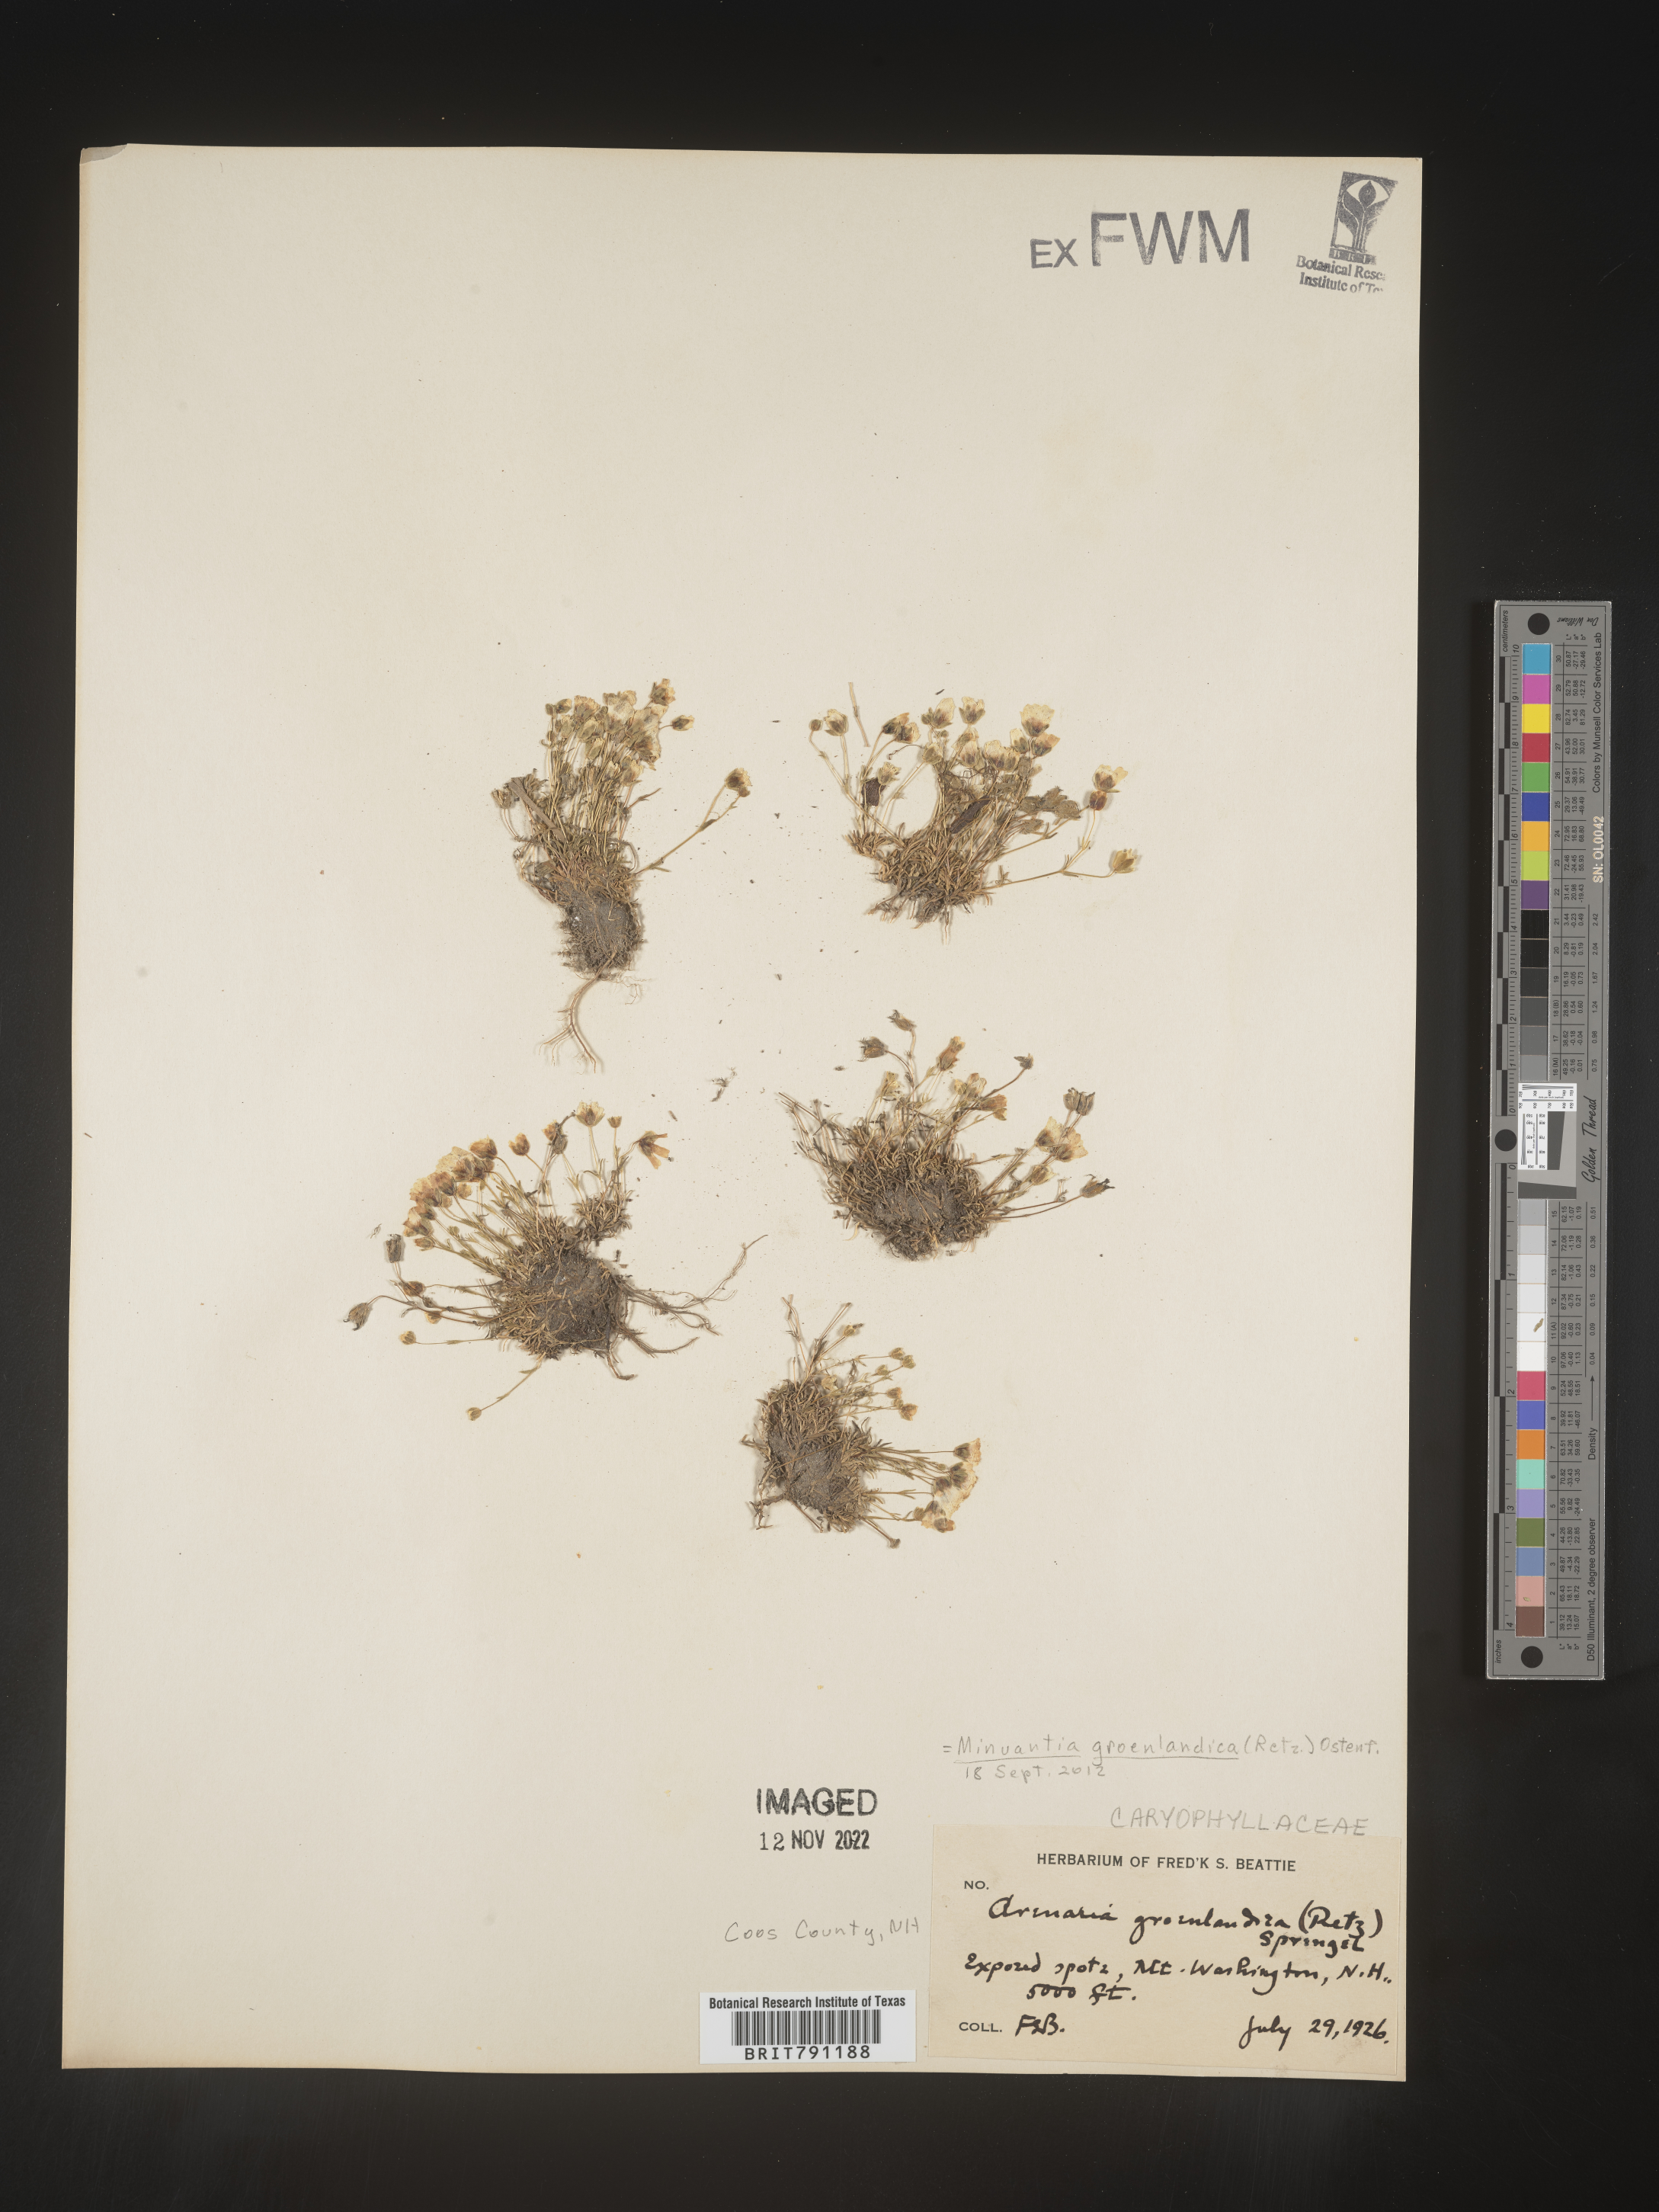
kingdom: Plantae
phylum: Tracheophyta
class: Magnoliopsida
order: Caryophyllales
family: Caryophyllaceae
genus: Geocarpon
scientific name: Geocarpon groenlandicum
